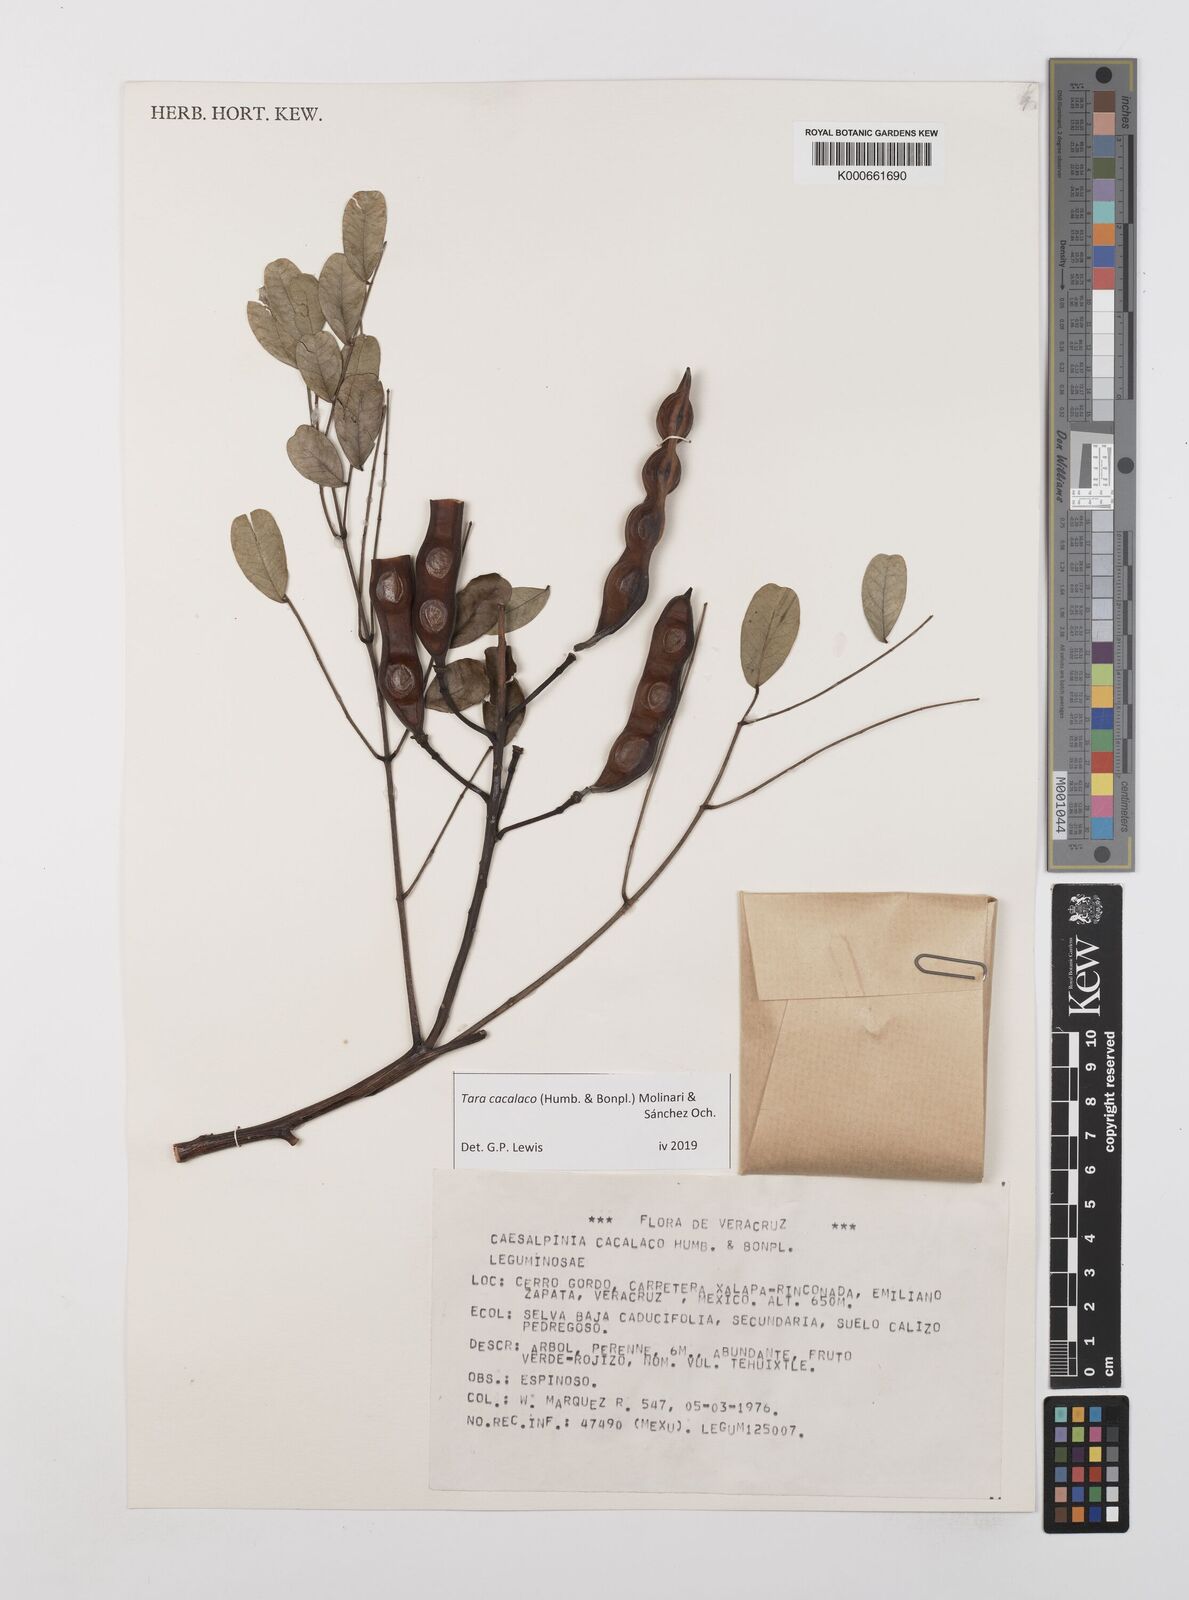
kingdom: Plantae
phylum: Tracheophyta
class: Magnoliopsida
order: Fabales
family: Fabaceae
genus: Tara
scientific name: Tara cacalaco
